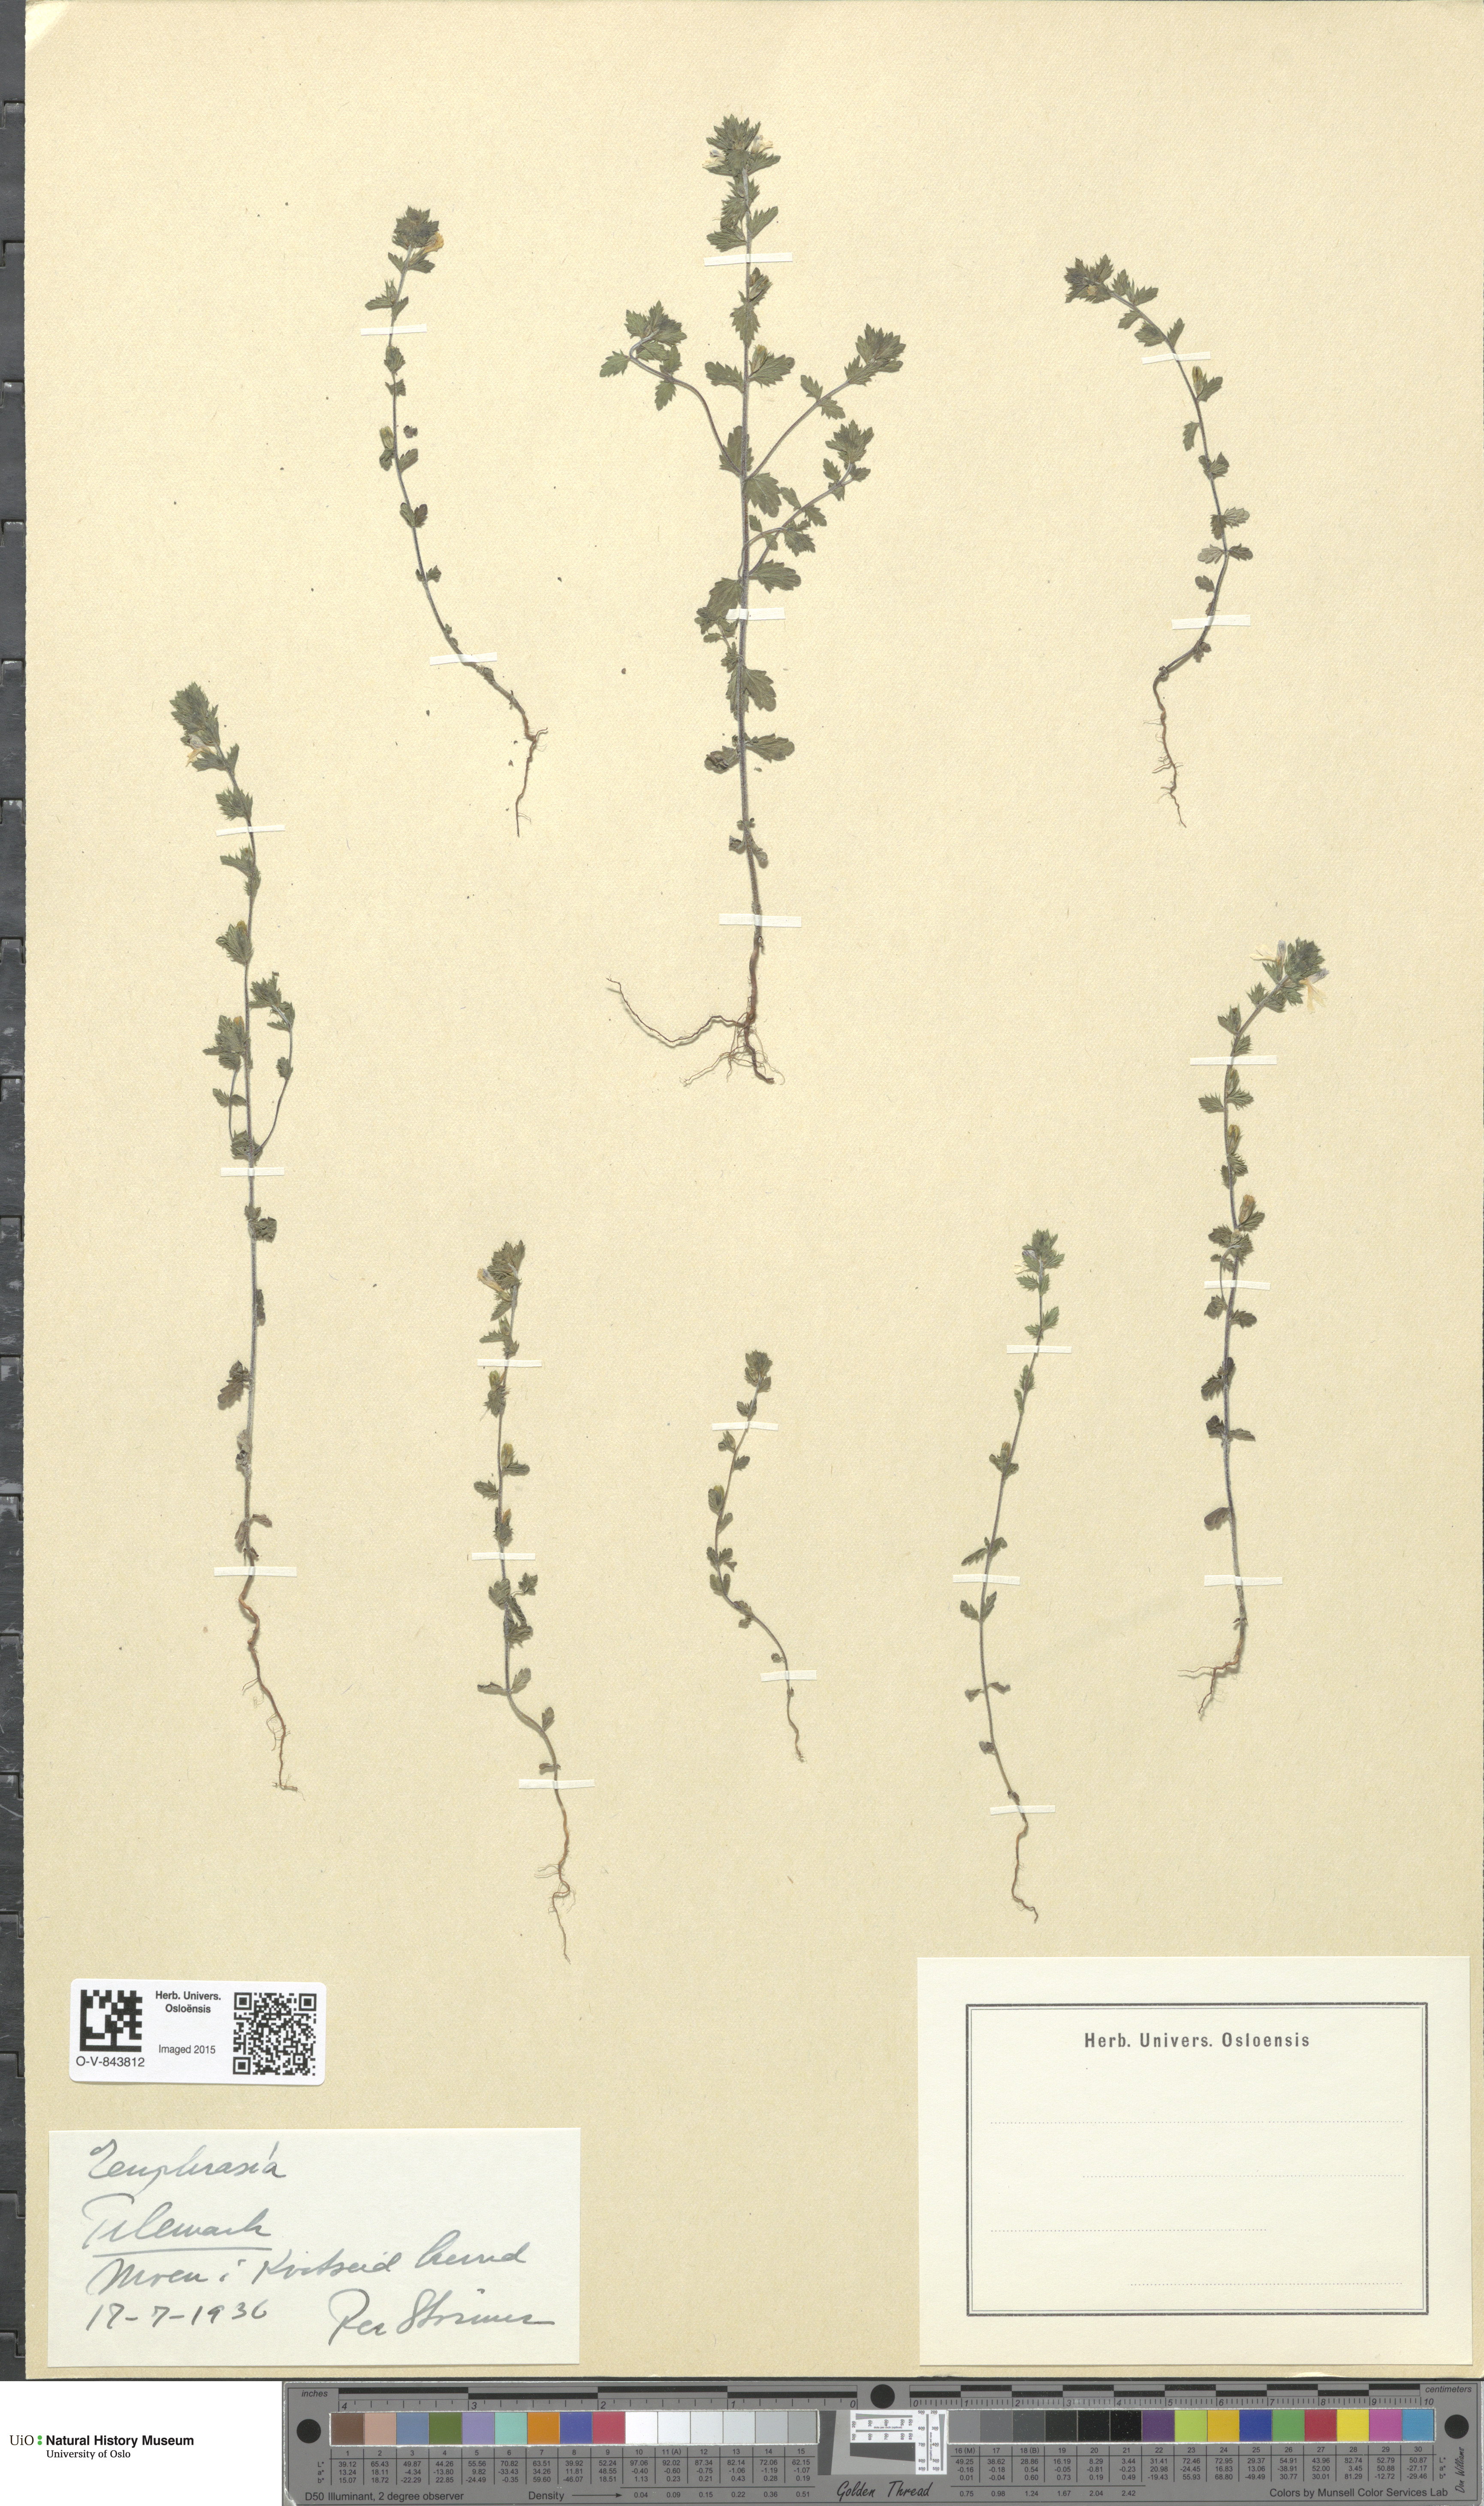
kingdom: Plantae
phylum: Tracheophyta
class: Magnoliopsida
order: Lamiales
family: Orobanchaceae
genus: Euphrasia
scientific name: Euphrasia
